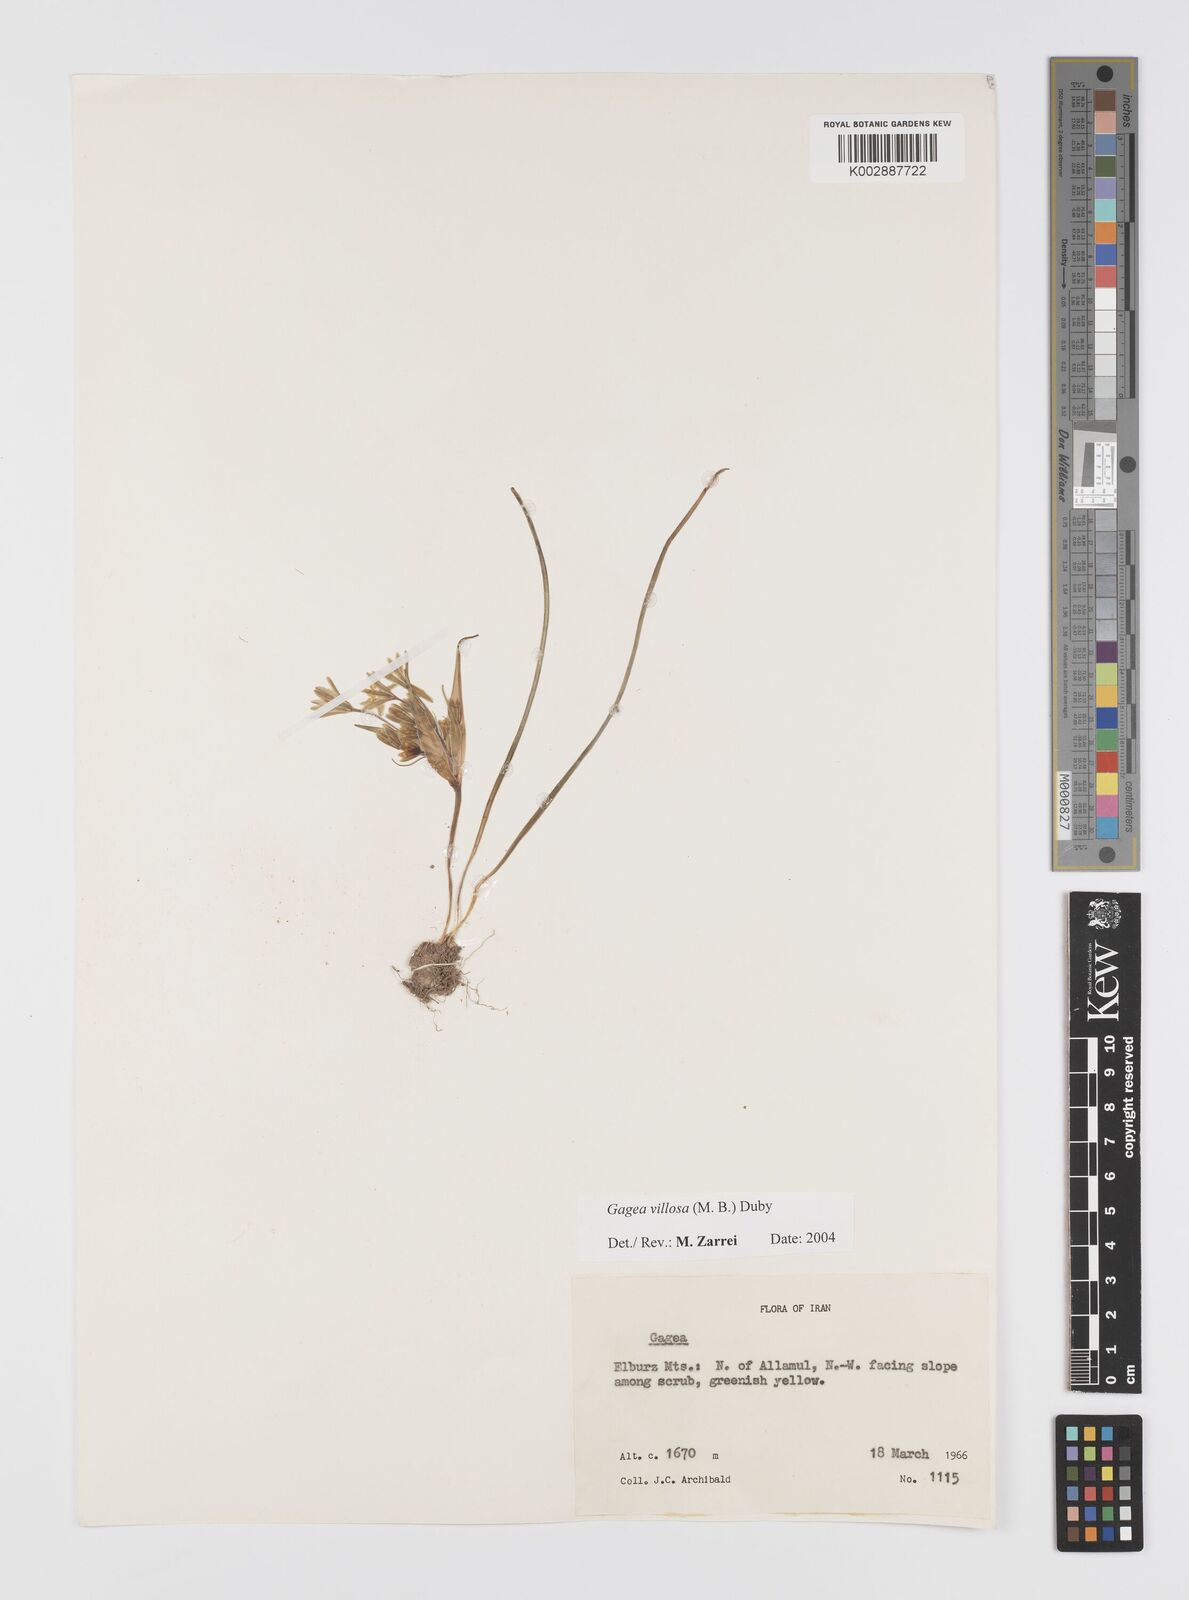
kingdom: Plantae
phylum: Tracheophyta
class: Liliopsida
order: Liliales
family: Liliaceae
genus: Gagea
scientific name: Gagea minima
